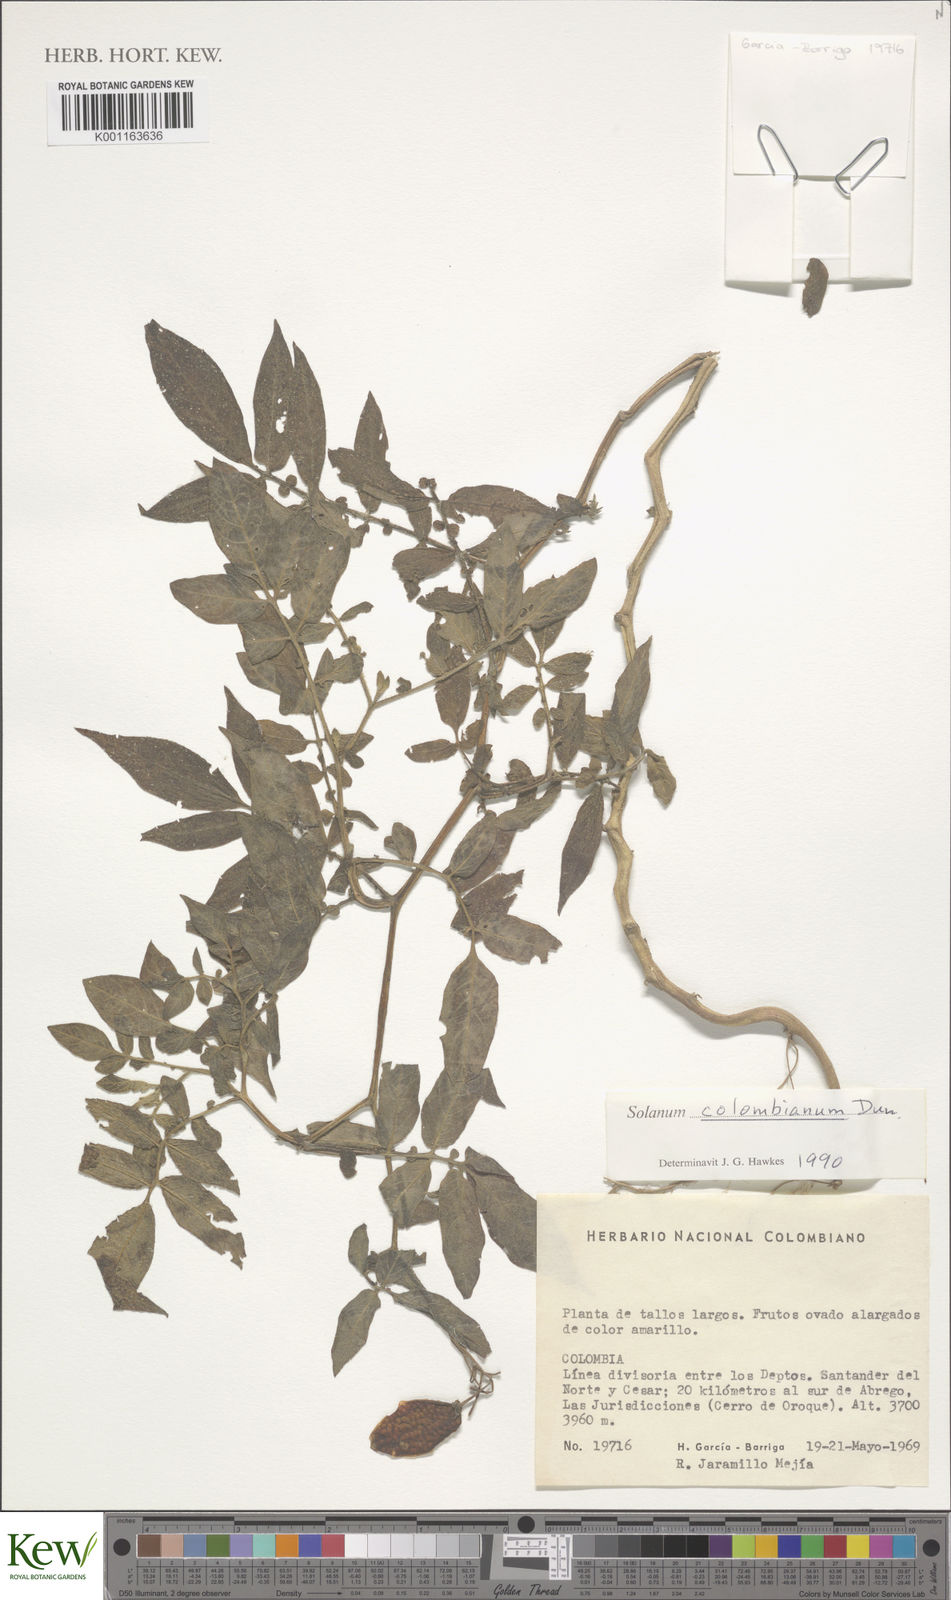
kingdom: Plantae
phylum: Tracheophyta
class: Magnoliopsida
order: Solanales
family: Solanaceae
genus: Solanum
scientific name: Solanum colombianum
